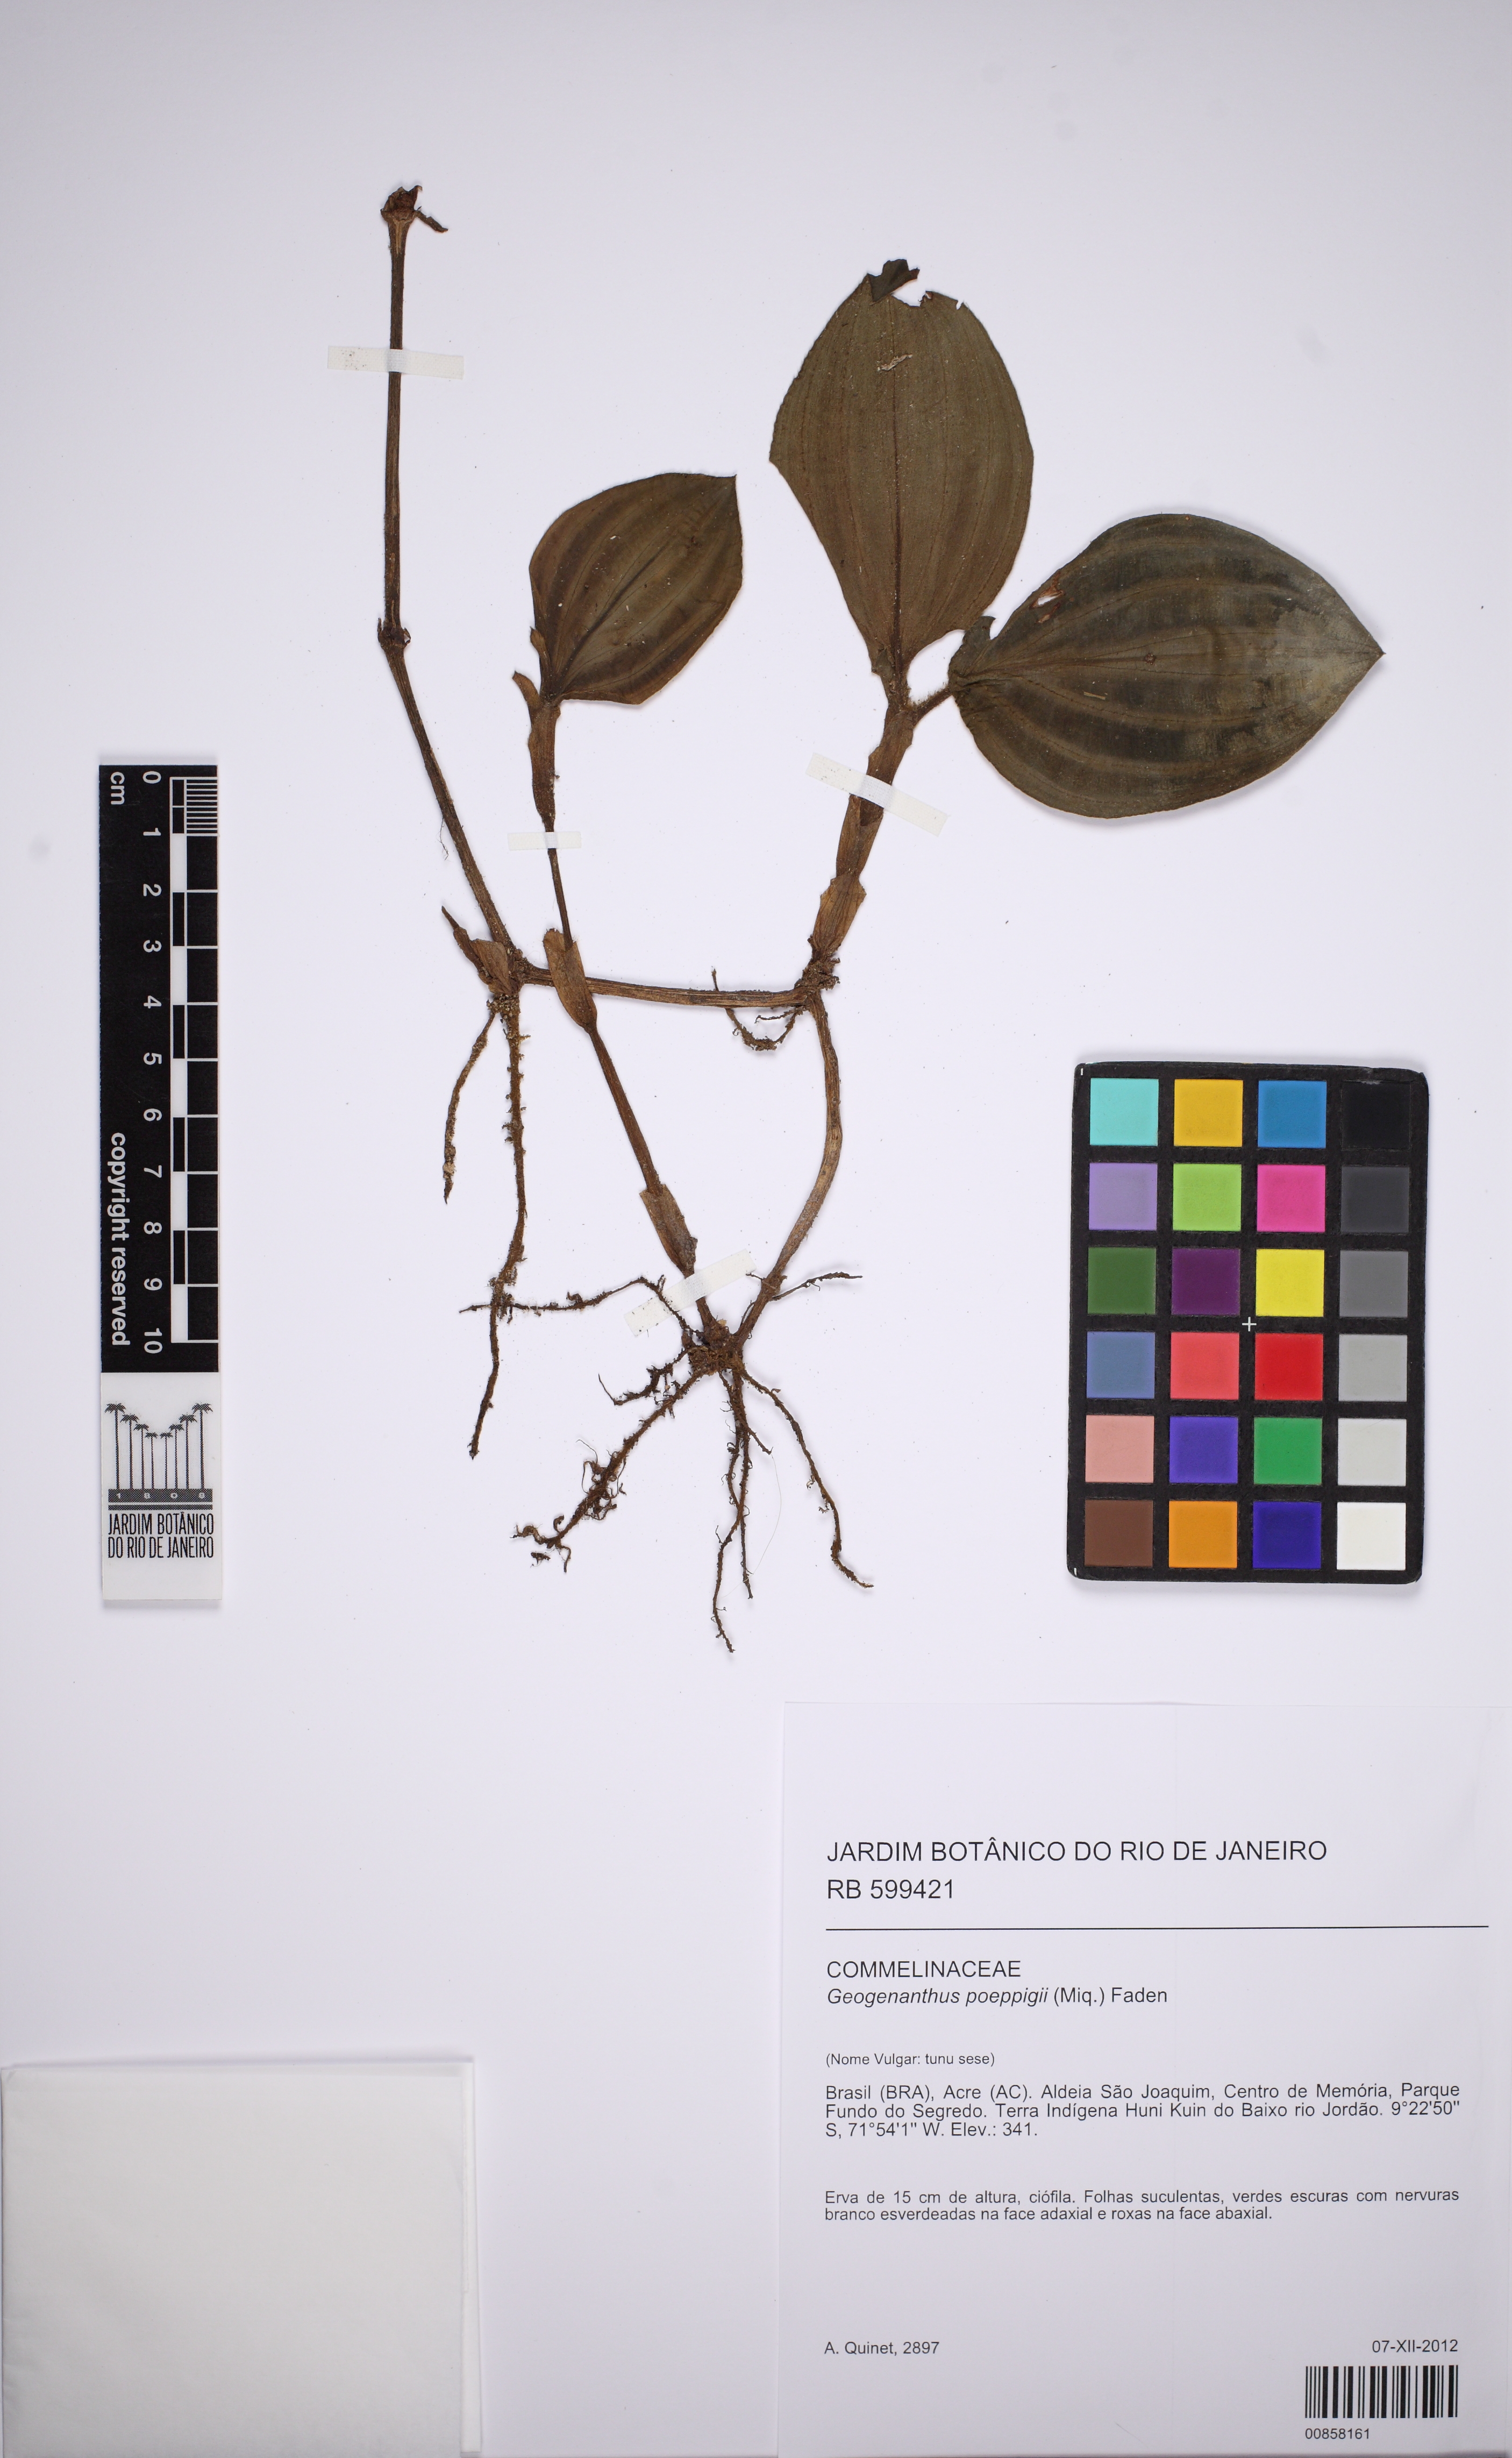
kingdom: Plantae
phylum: Tracheophyta
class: Liliopsida
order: Commelinales
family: Commelinaceae
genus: Geogenanthus
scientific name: Geogenanthus poeppigii
